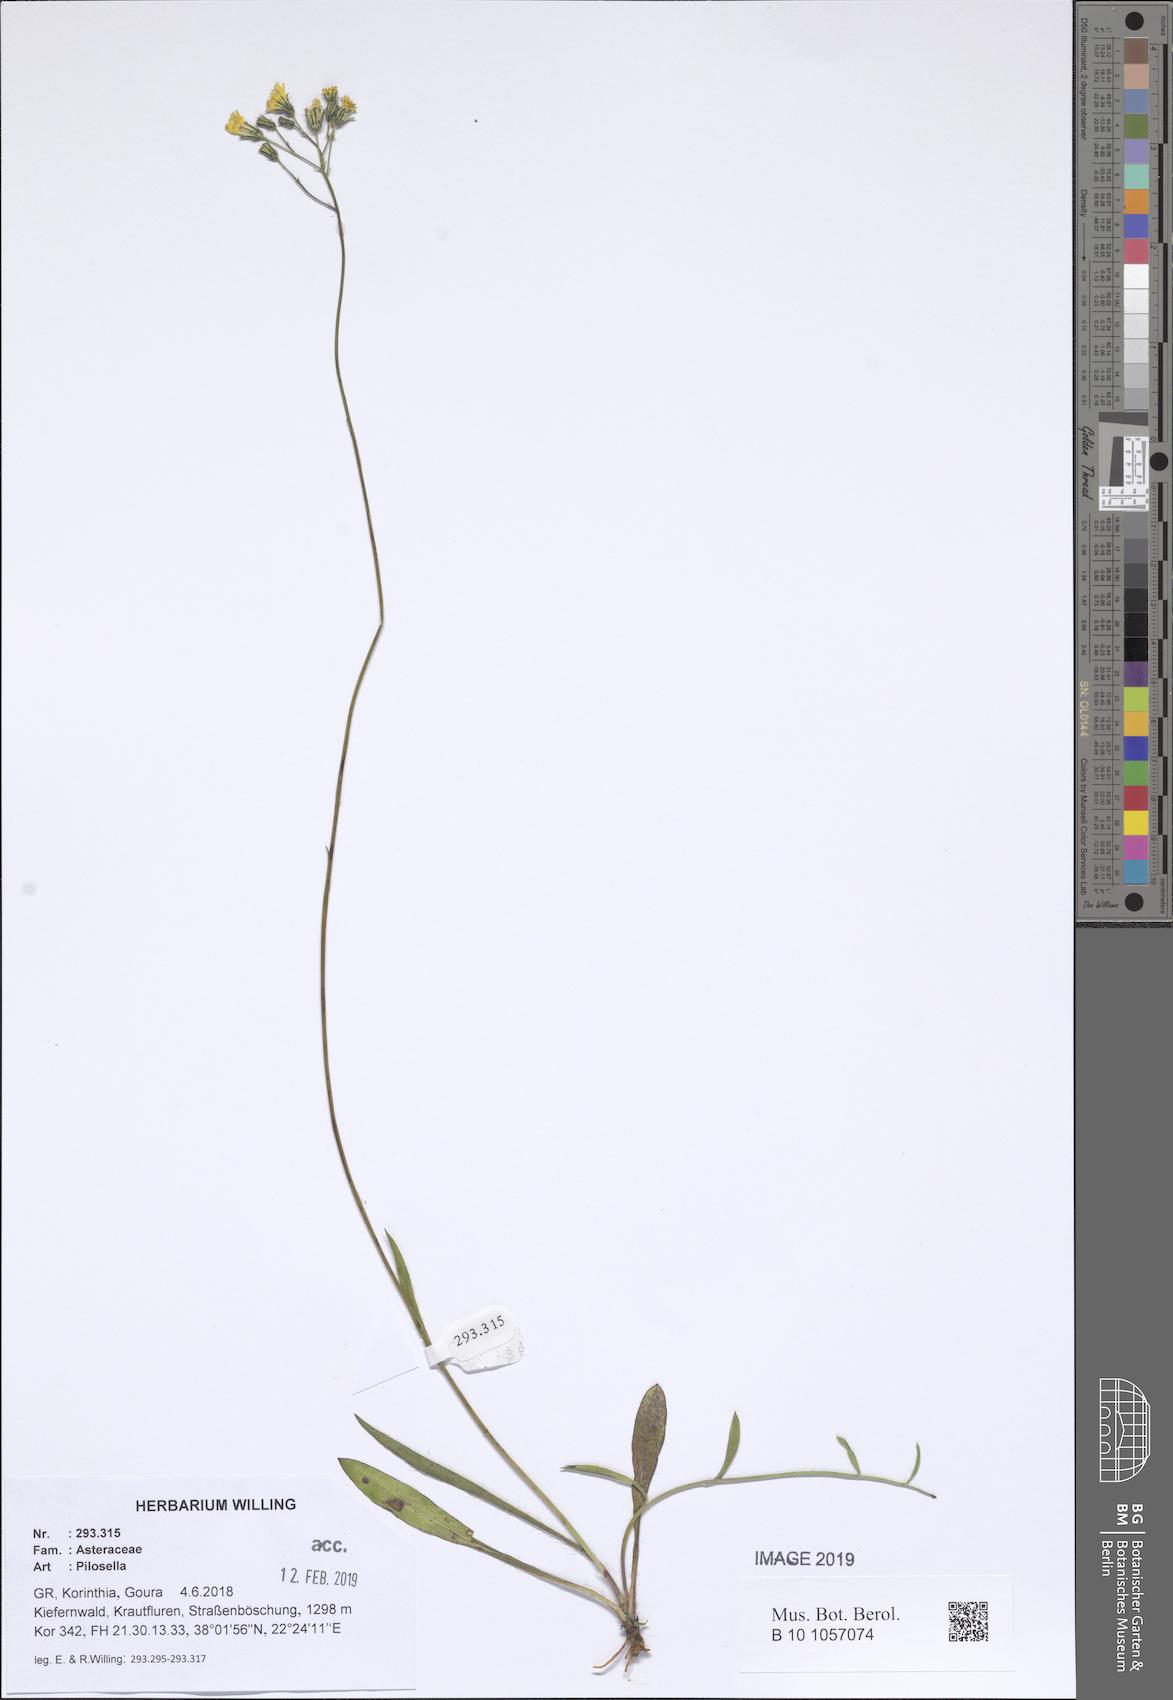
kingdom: Plantae
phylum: Tracheophyta
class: Magnoliopsida
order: Asterales
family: Asteraceae
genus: Pilosella
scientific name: Pilosella
